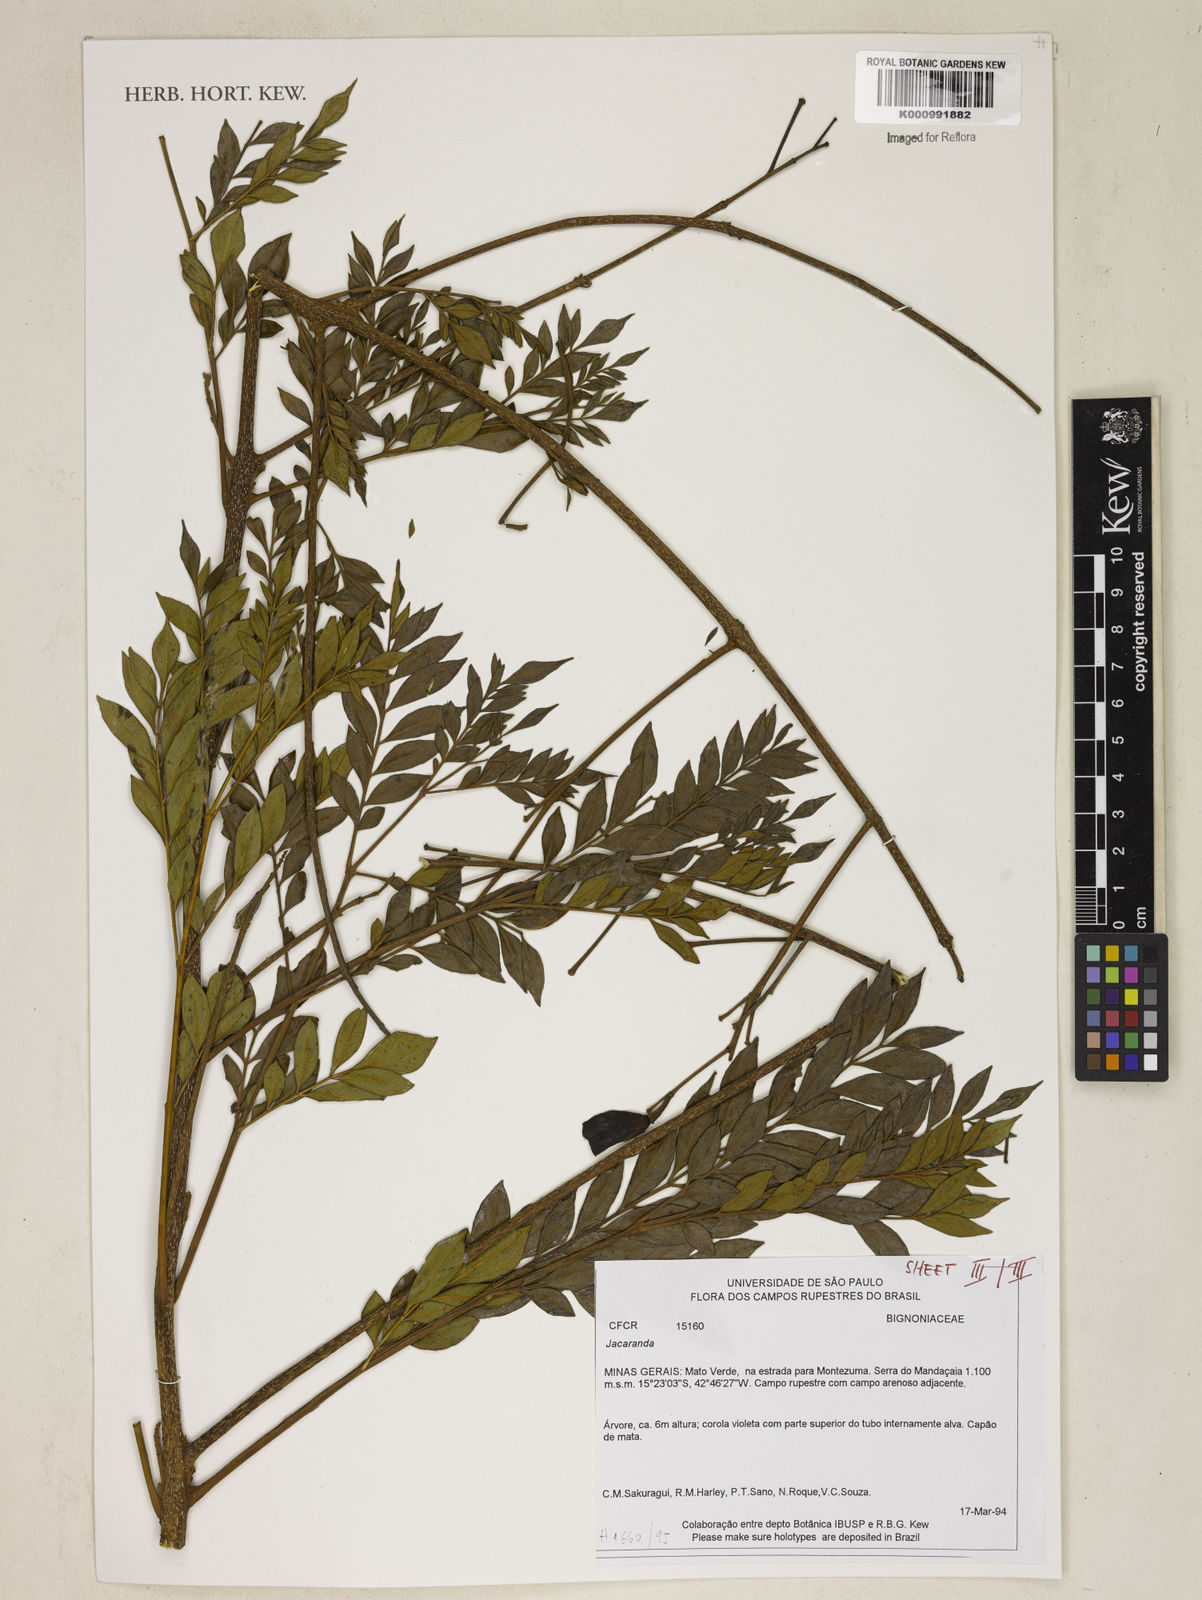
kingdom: Plantae
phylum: Tracheophyta
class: Magnoliopsida
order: Lamiales
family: Bignoniaceae
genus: Jacaranda
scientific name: Jacaranda
